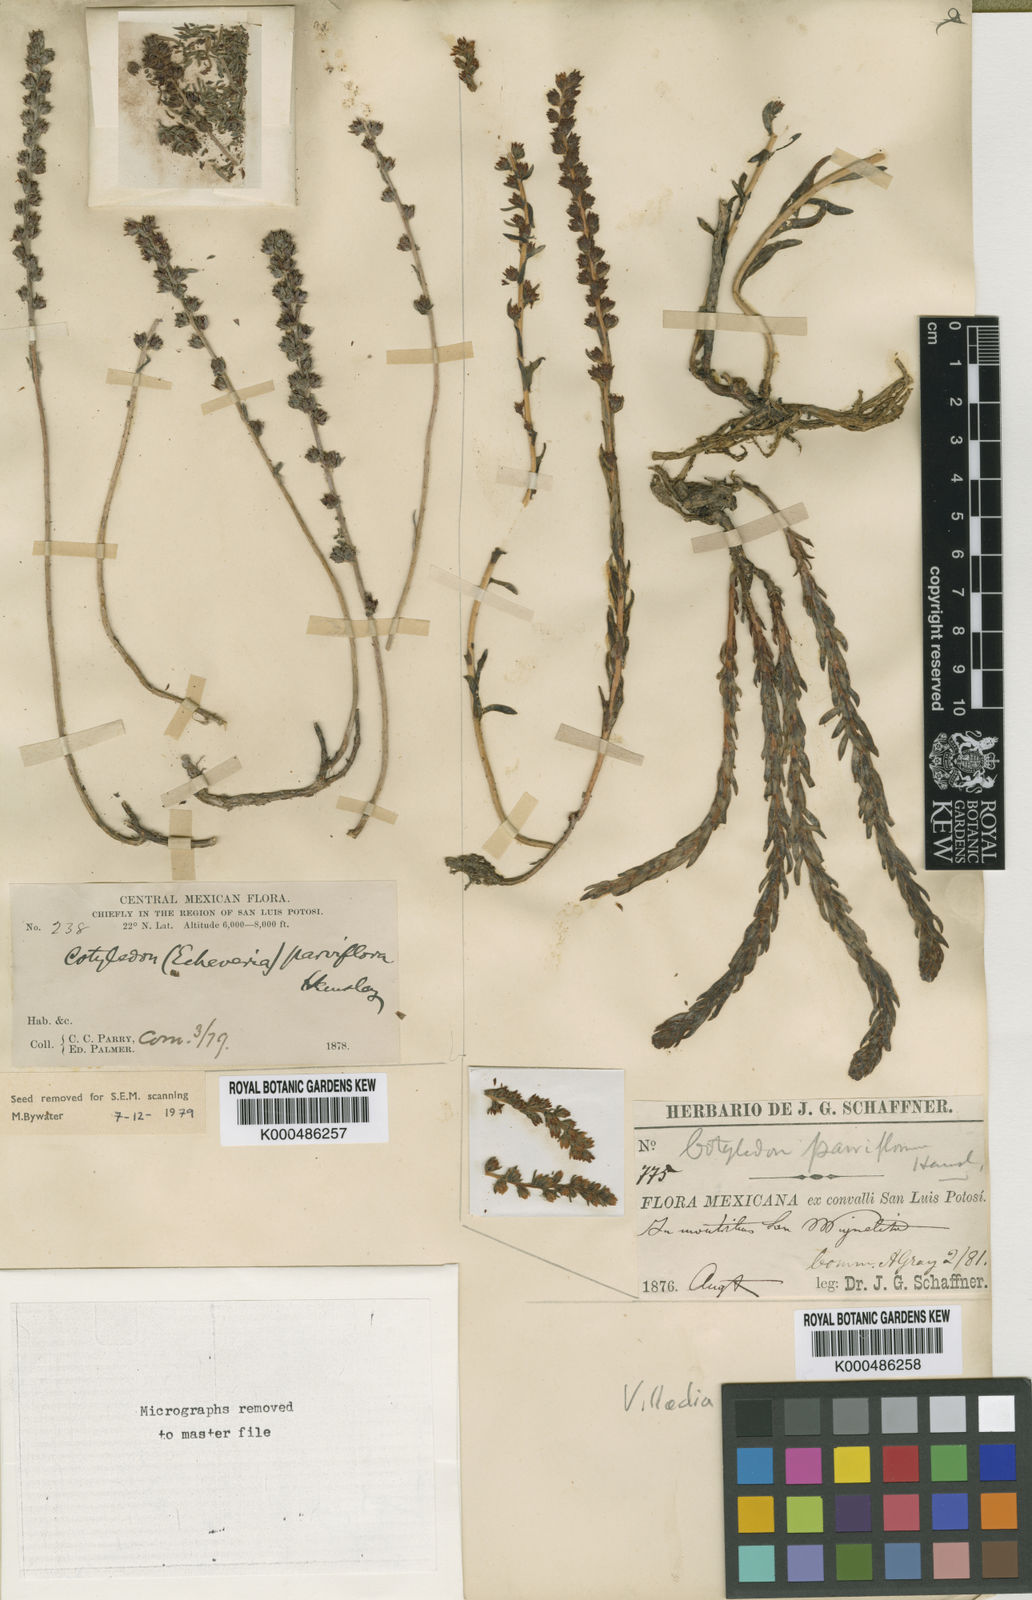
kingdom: Plantae
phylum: Tracheophyta
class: Magnoliopsida
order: Saxifragales
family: Crassulaceae
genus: Villadia
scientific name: Villadia misera
